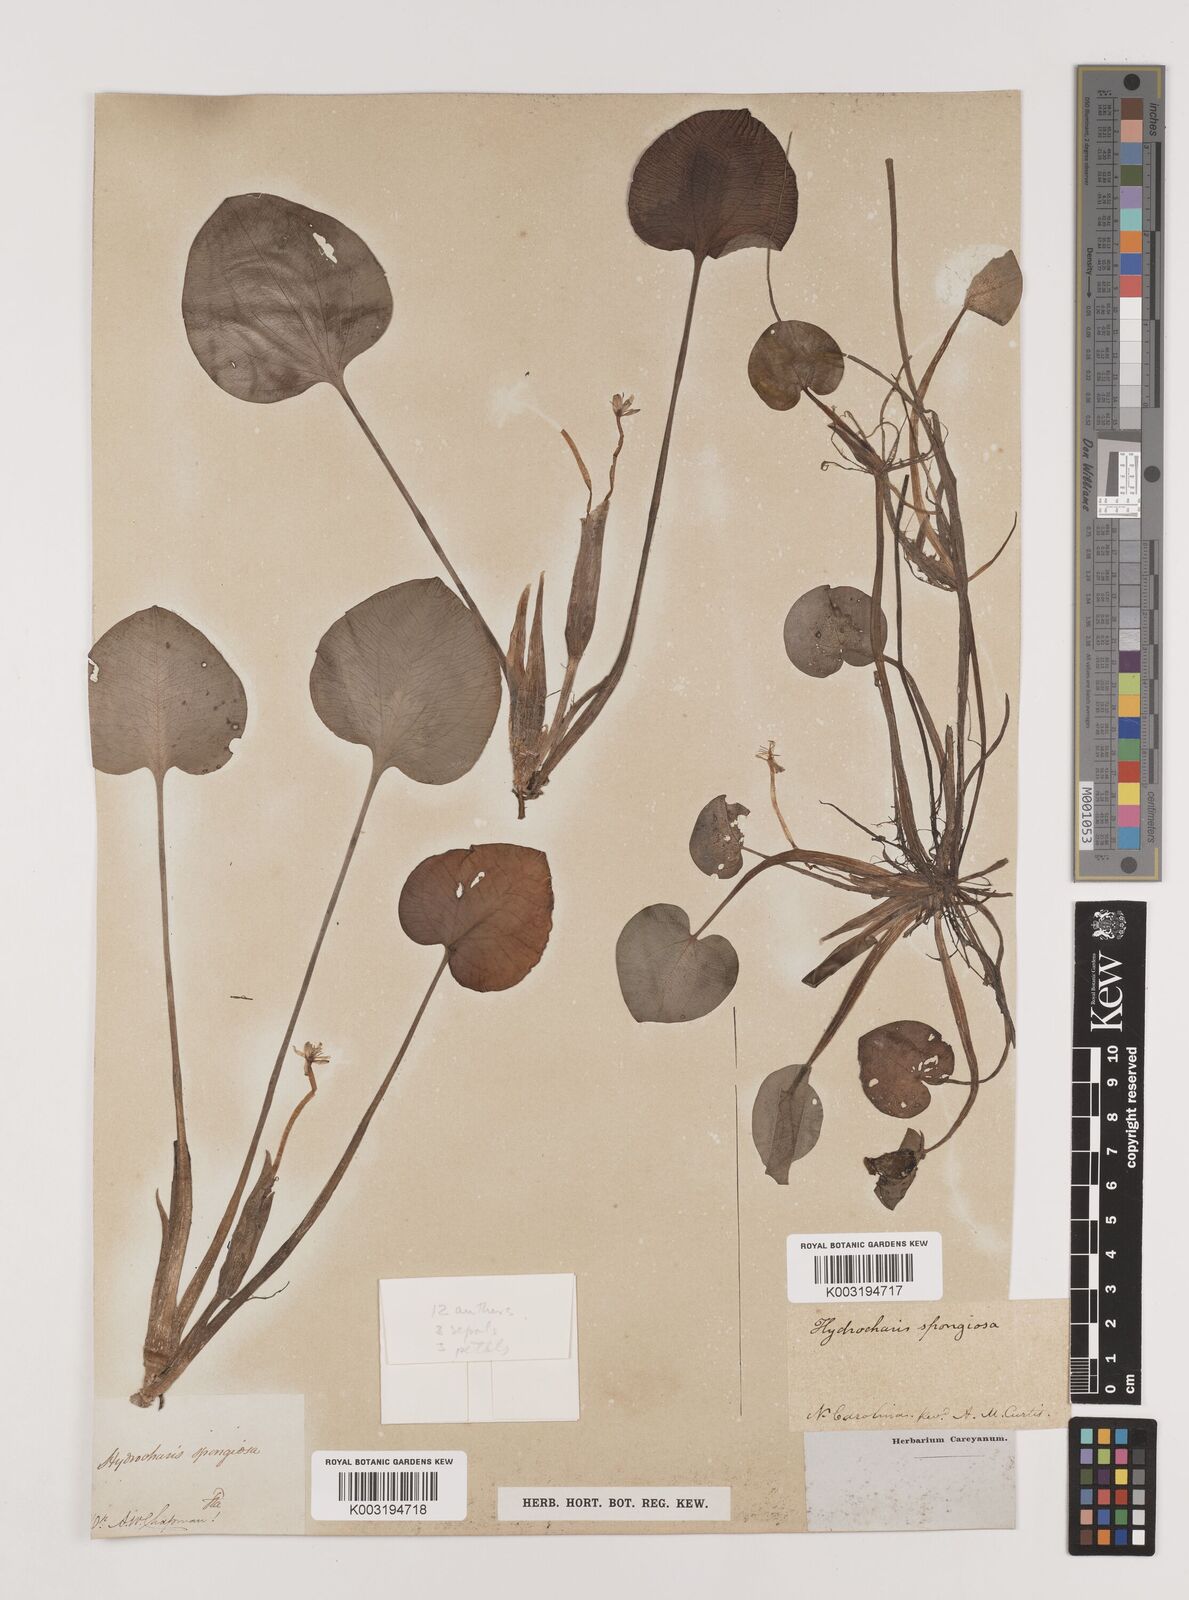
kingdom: Plantae
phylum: Tracheophyta
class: Liliopsida
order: Alismatales
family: Hydrocharitaceae
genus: Hydrocharis
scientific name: Hydrocharis spongia
